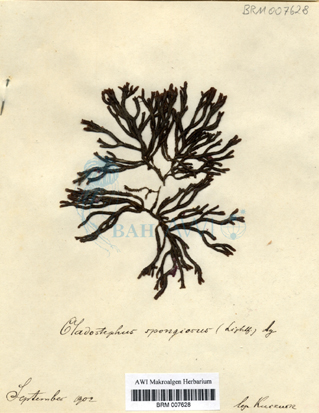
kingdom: Chromista
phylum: Ochrophyta
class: Phaeophyceae
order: Sphacelariales
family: Cladostephaceae
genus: Cladostephus
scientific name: Cladostephus spongiosus
